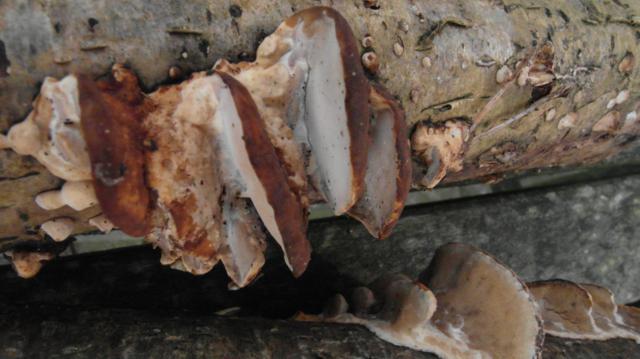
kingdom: Fungi
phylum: Basidiomycota
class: Agaricomycetes
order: Hymenochaetales
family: Hymenochaetaceae
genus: Xanthoporia
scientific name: Xanthoporia radiata
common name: elle-spejlporesvamp
